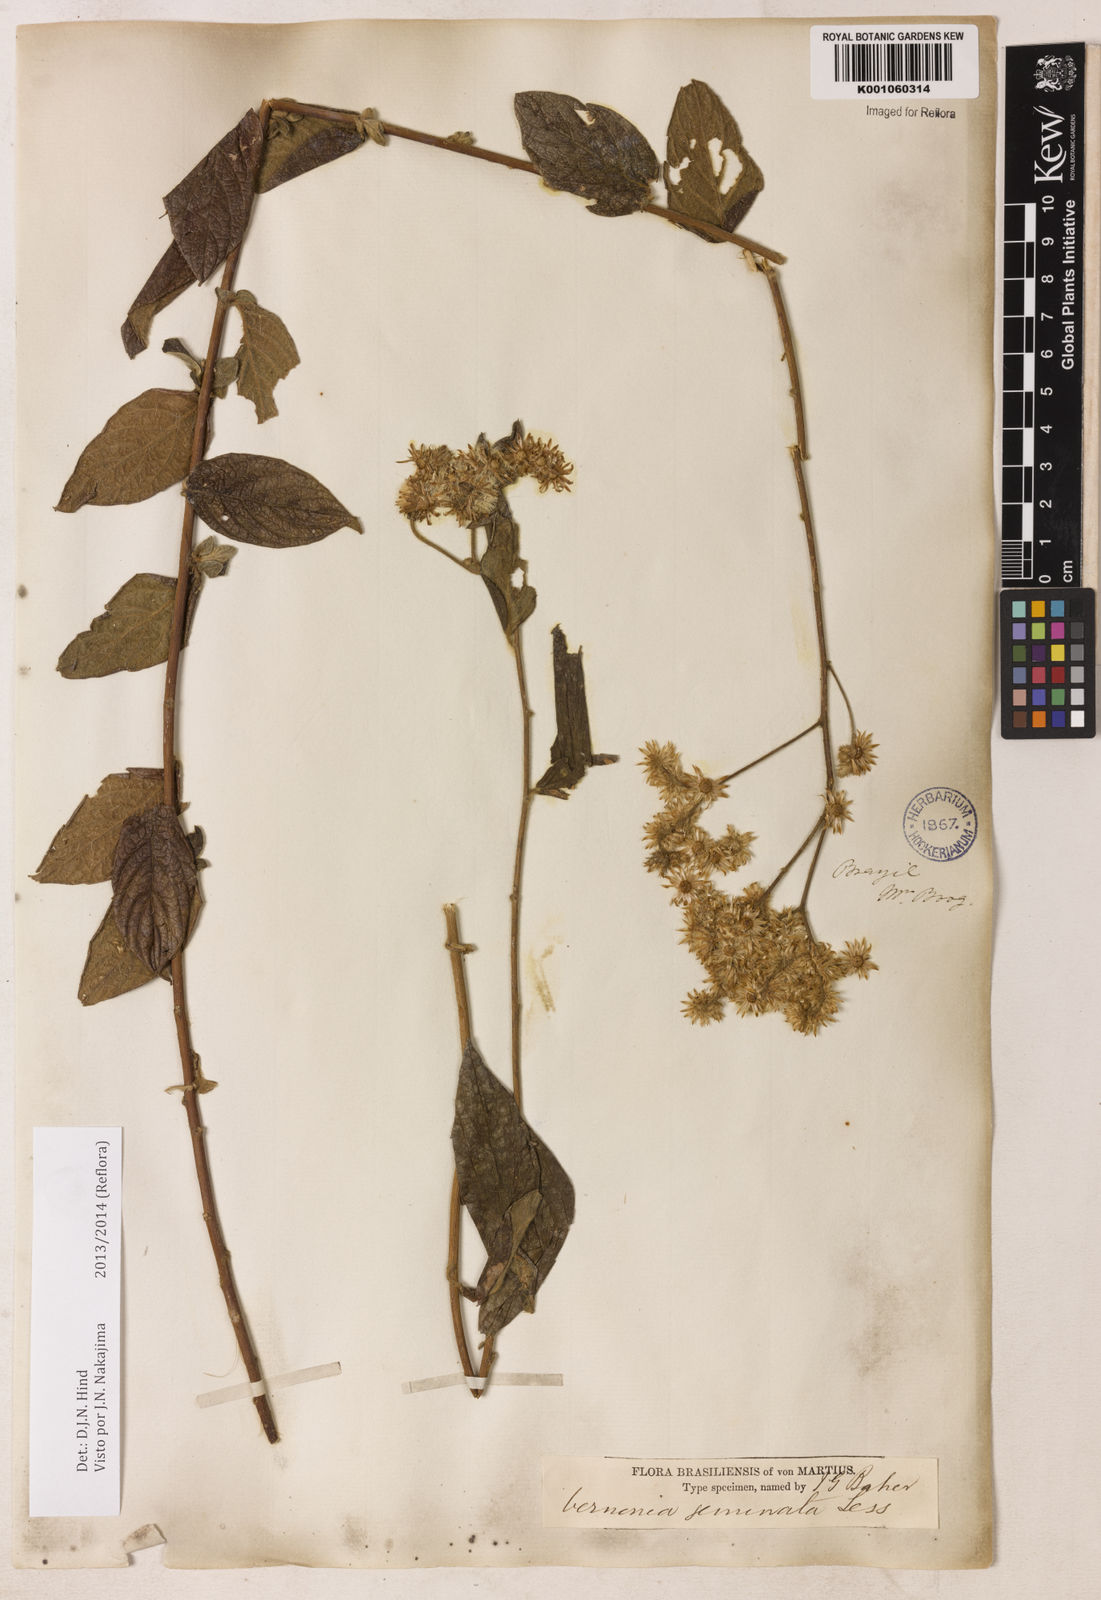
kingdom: Plantae
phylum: Tracheophyta
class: Magnoliopsida
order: Asterales
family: Asteraceae
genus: Lepidaploa
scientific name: Lepidaploa canescens
